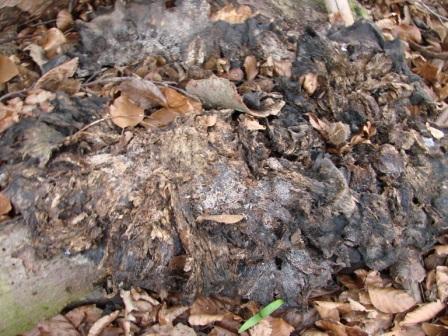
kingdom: Fungi
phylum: Basidiomycota
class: Agaricomycetes
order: Polyporales
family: Meripilaceae
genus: Meripilus
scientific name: Meripilus giganteus
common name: kæmpeporesvamp
